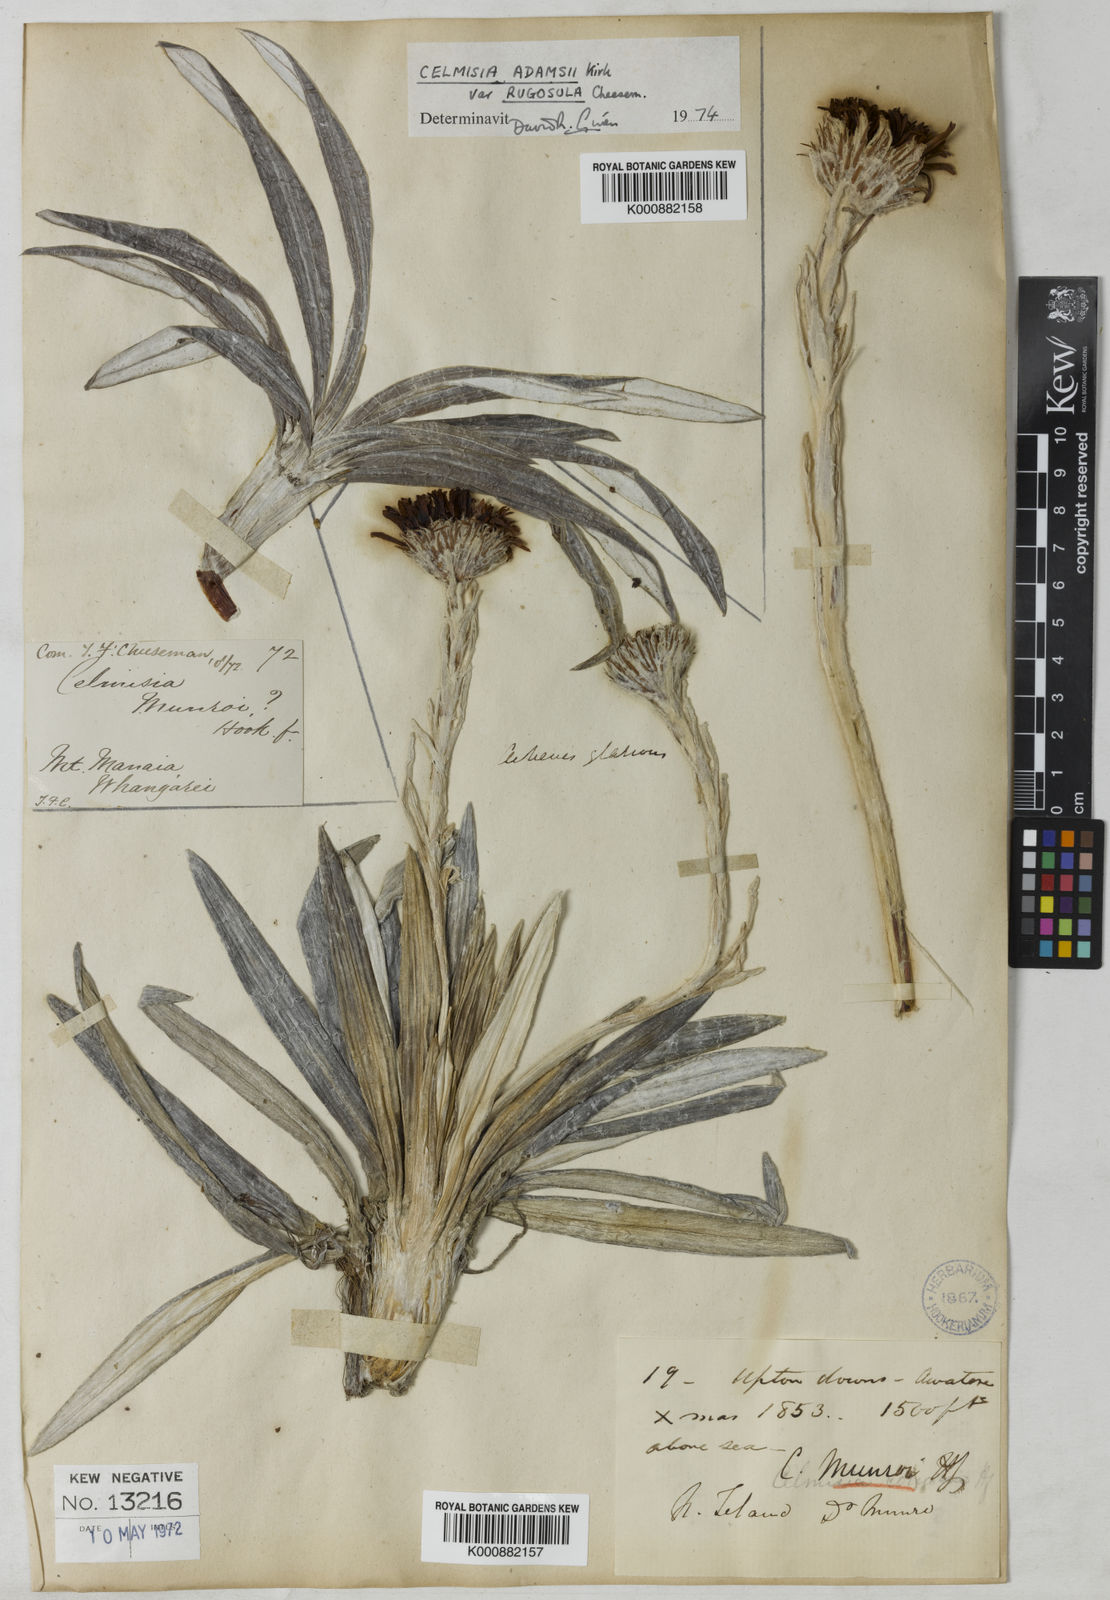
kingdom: Plantae
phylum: Tracheophyta
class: Magnoliopsida
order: Asterales
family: Asteraceae
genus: Celmisia
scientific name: Celmisia munroi
